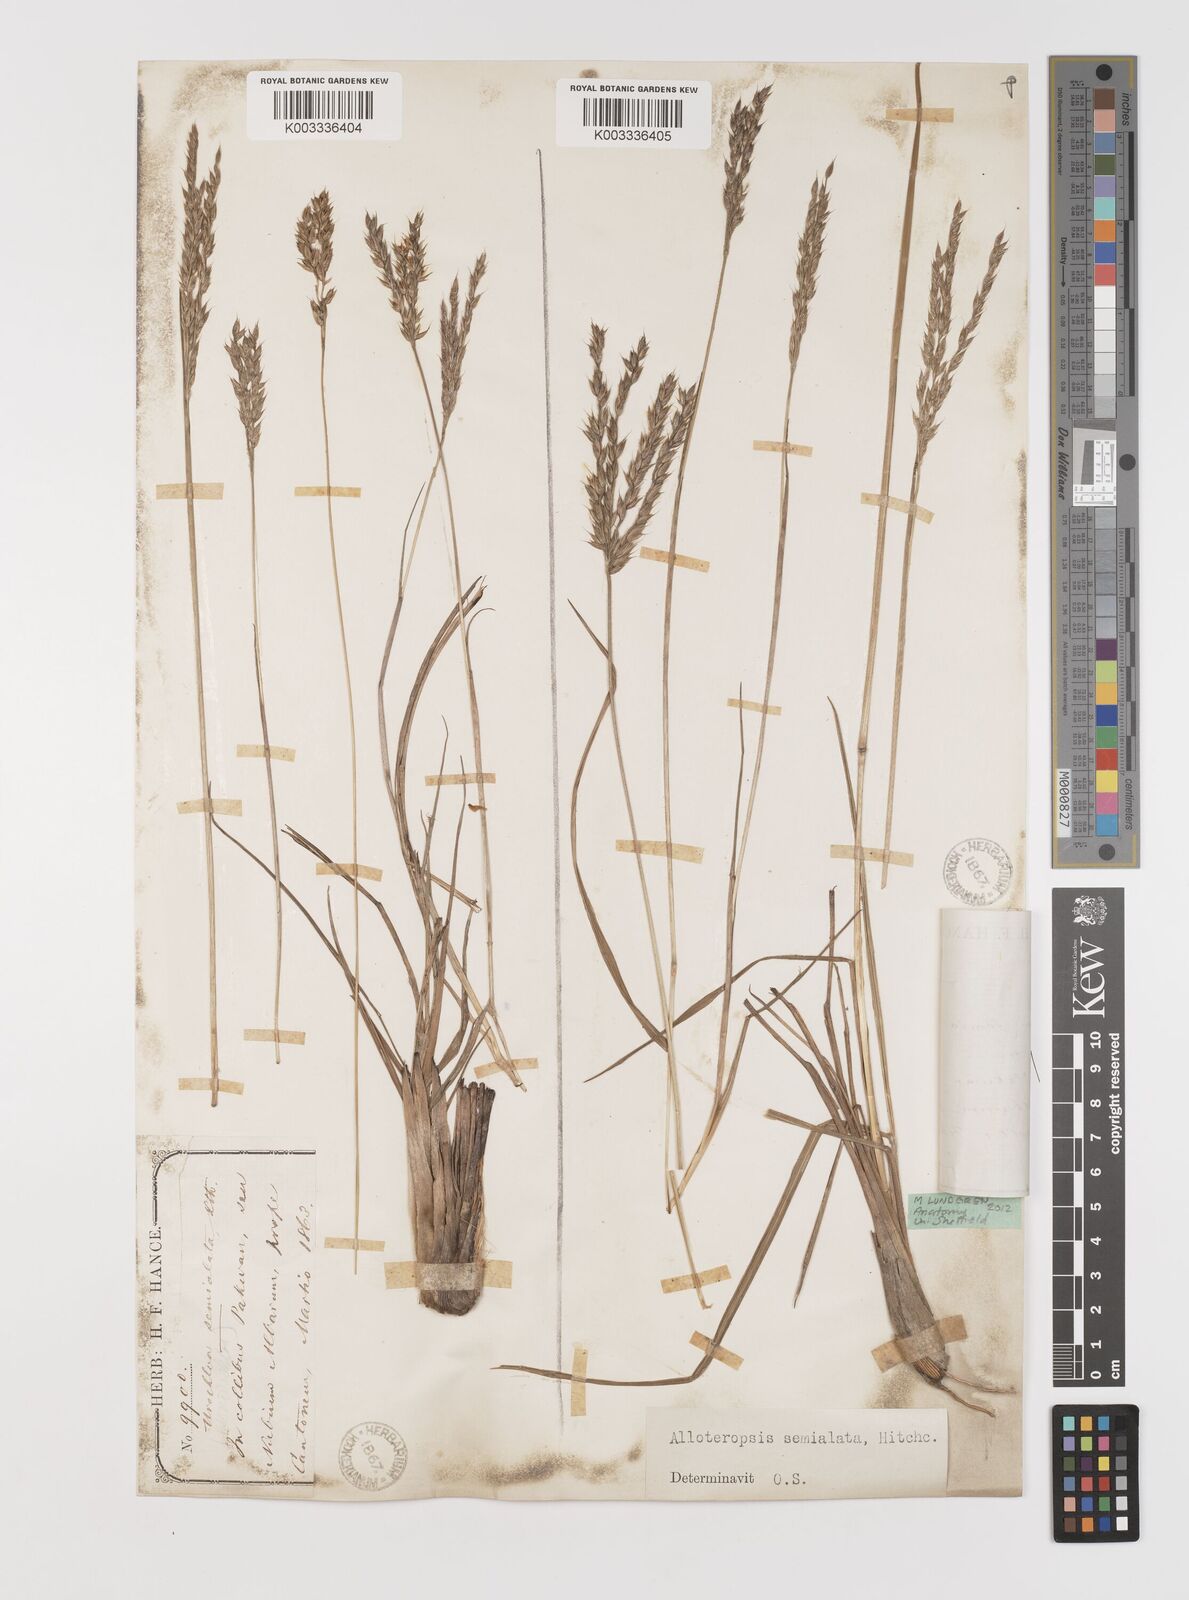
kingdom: Plantae
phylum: Tracheophyta
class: Liliopsida
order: Poales
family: Poaceae
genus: Alloteropsis
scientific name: Alloteropsis semialata
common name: Cockatoo grass
